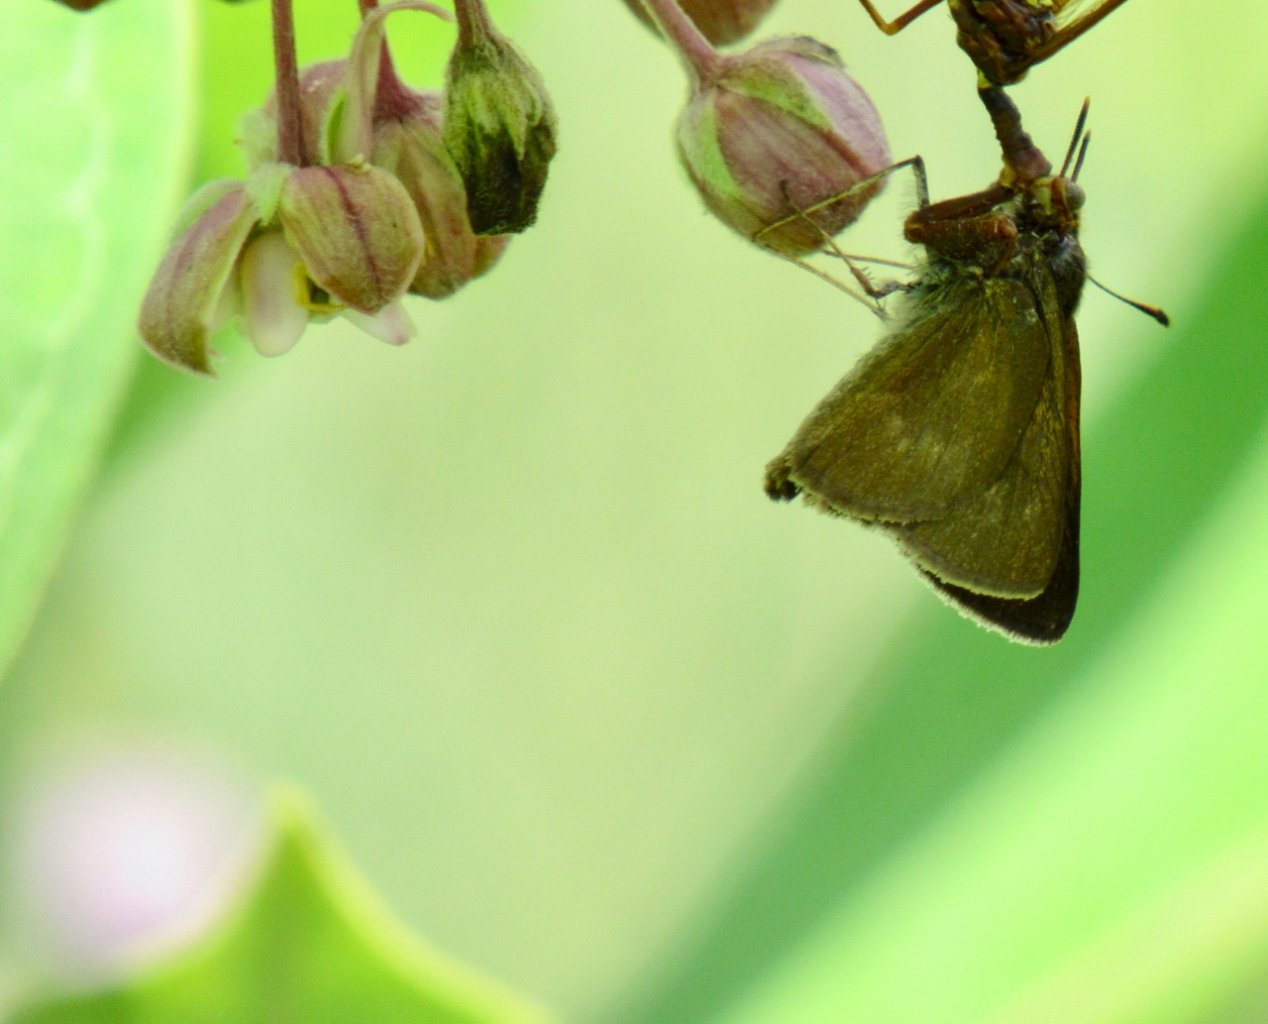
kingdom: Animalia
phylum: Arthropoda
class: Insecta
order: Lepidoptera
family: Hesperiidae
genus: Polites
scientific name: Polites egeremet
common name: Northern Broken-Dash
